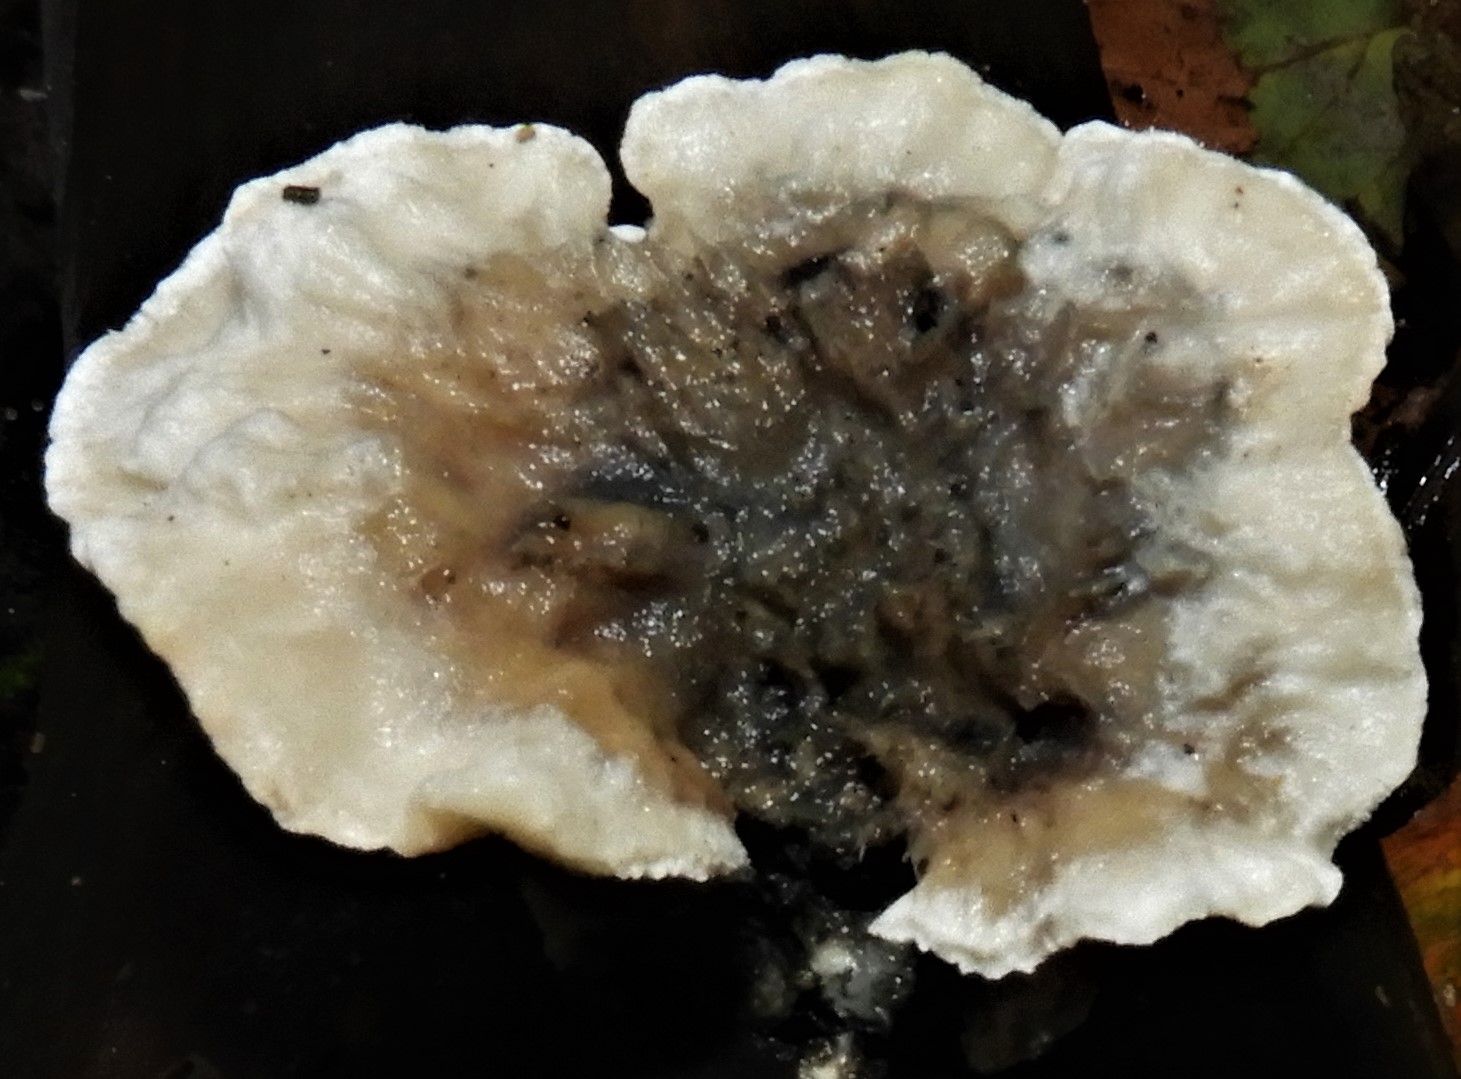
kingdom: Fungi
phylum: Basidiomycota
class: Agaricomycetes
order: Polyporales
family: Phanerochaetaceae
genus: Bjerkandera
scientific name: Bjerkandera adusta
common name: sveden sodporesvamp
